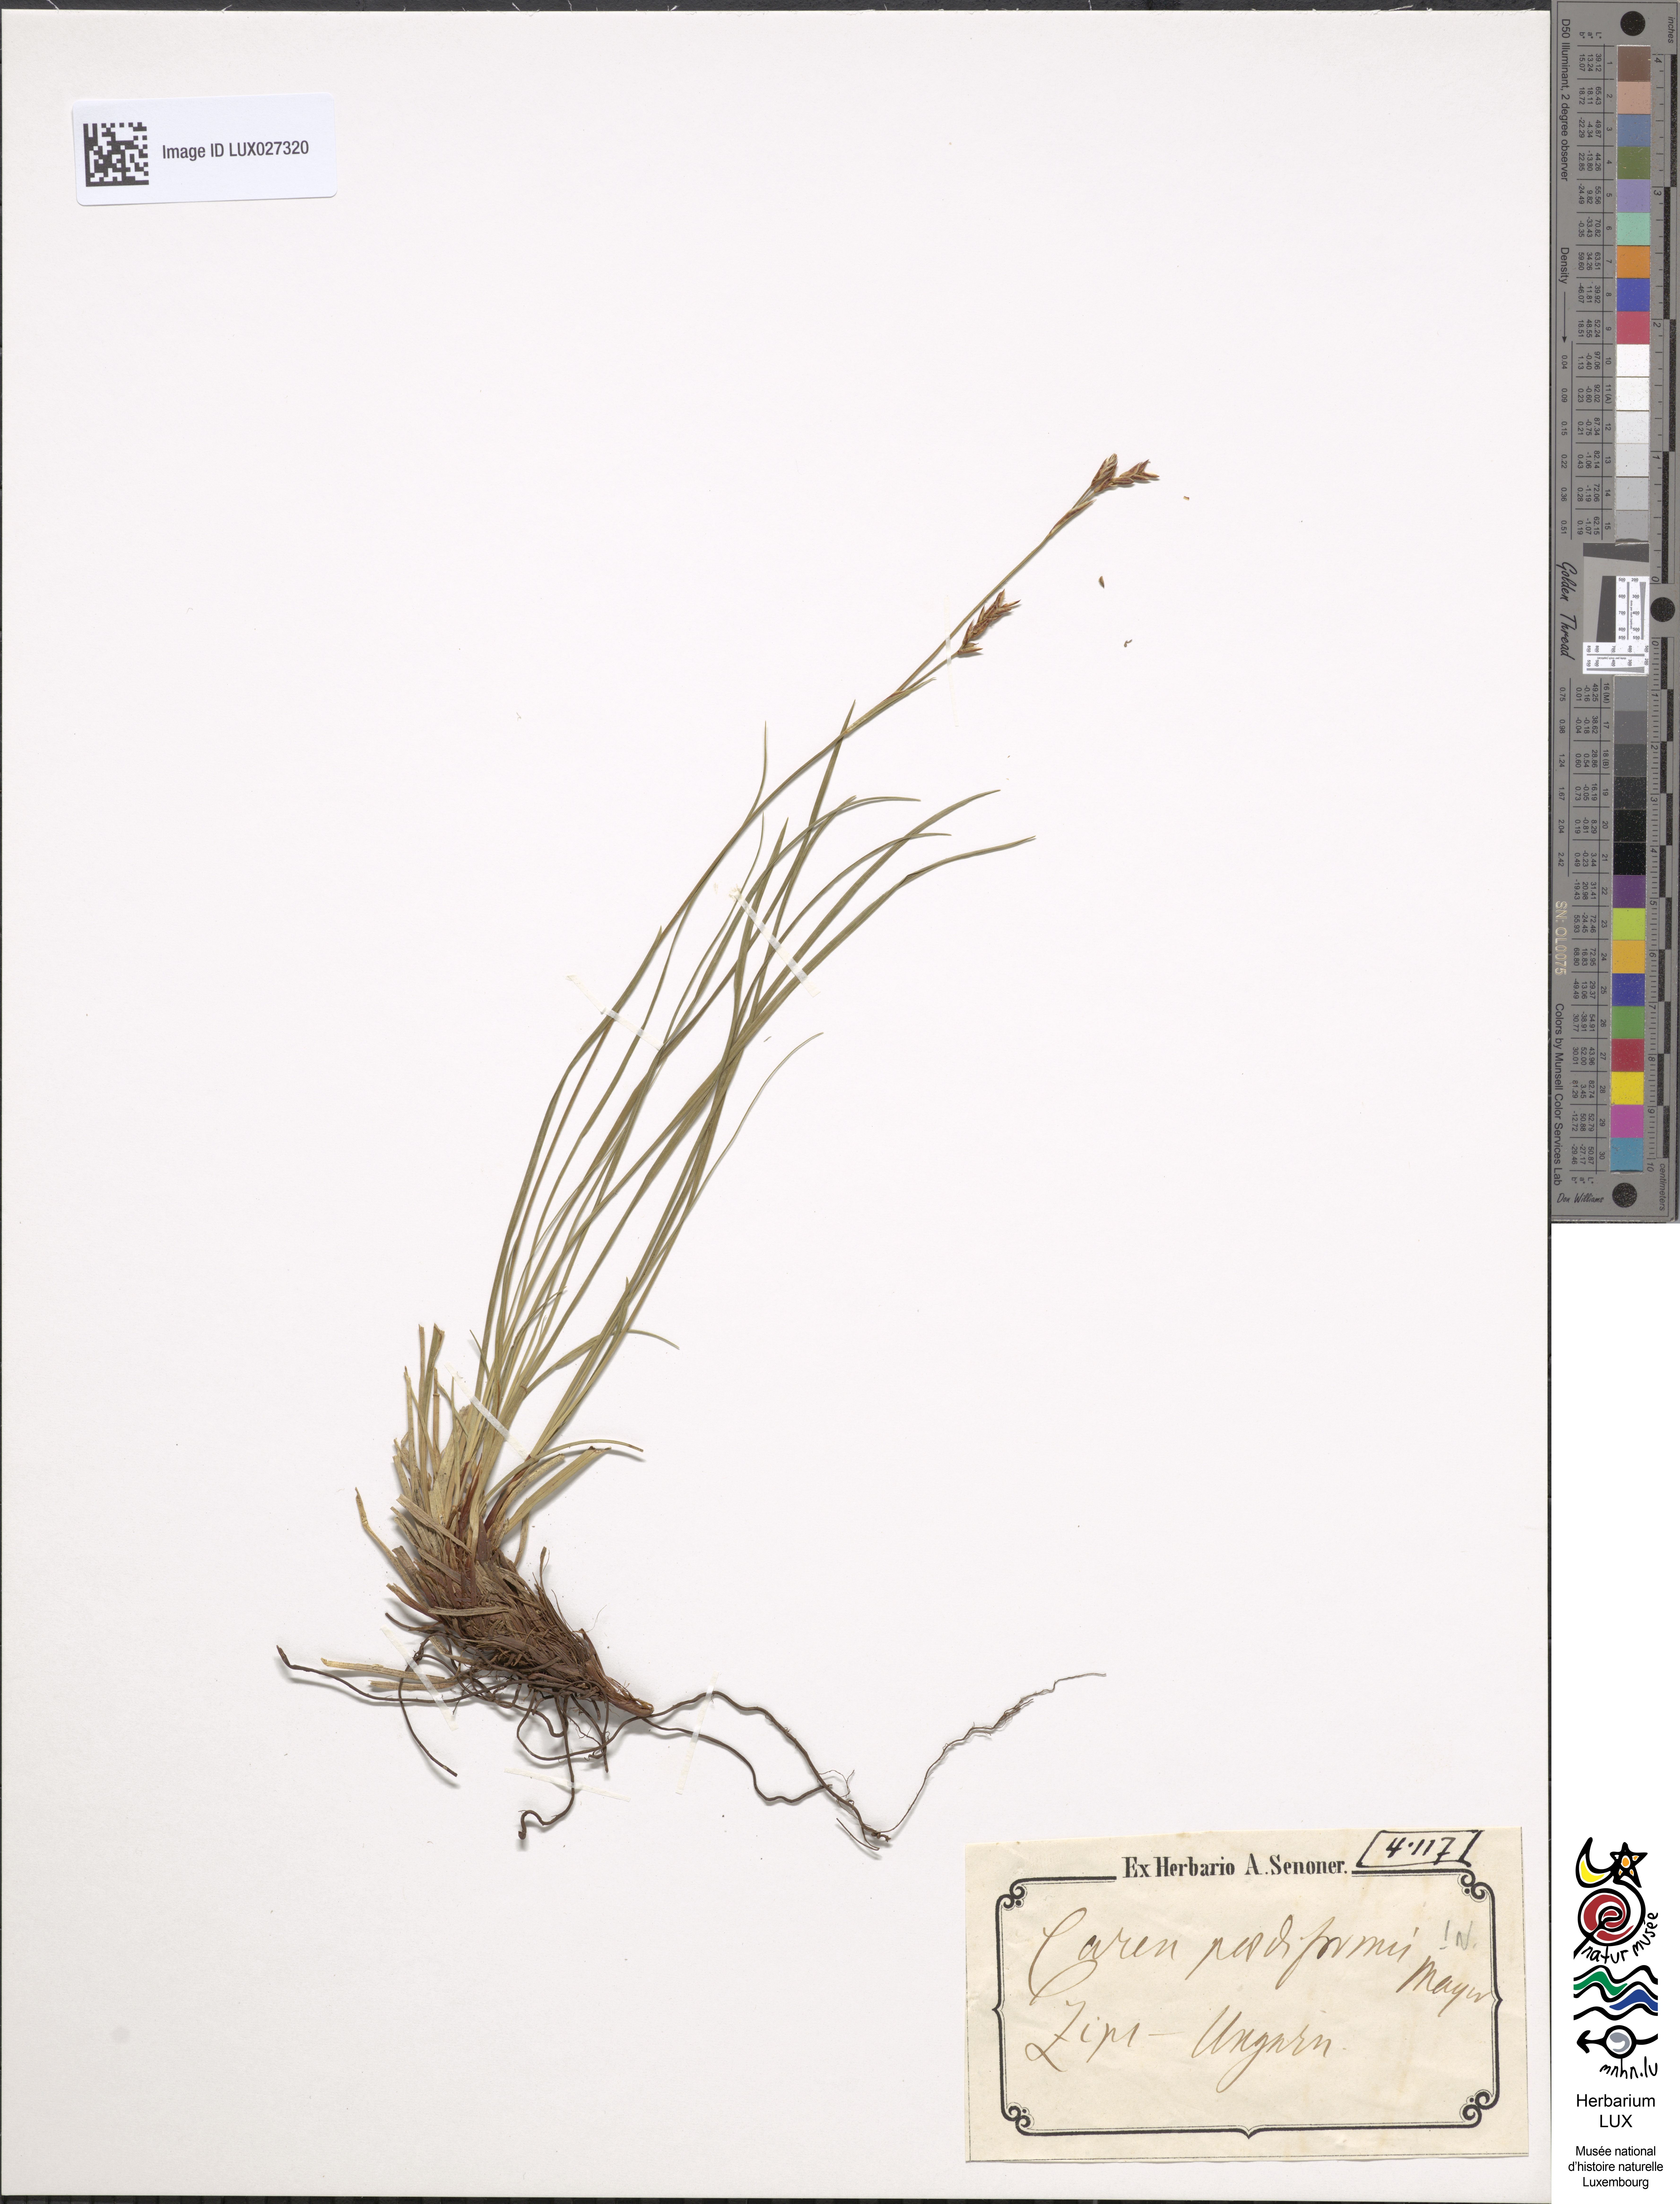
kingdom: Plantae
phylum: Tracheophyta
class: Liliopsida
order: Poales
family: Cyperaceae
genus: Carex
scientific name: Carex pediformis
